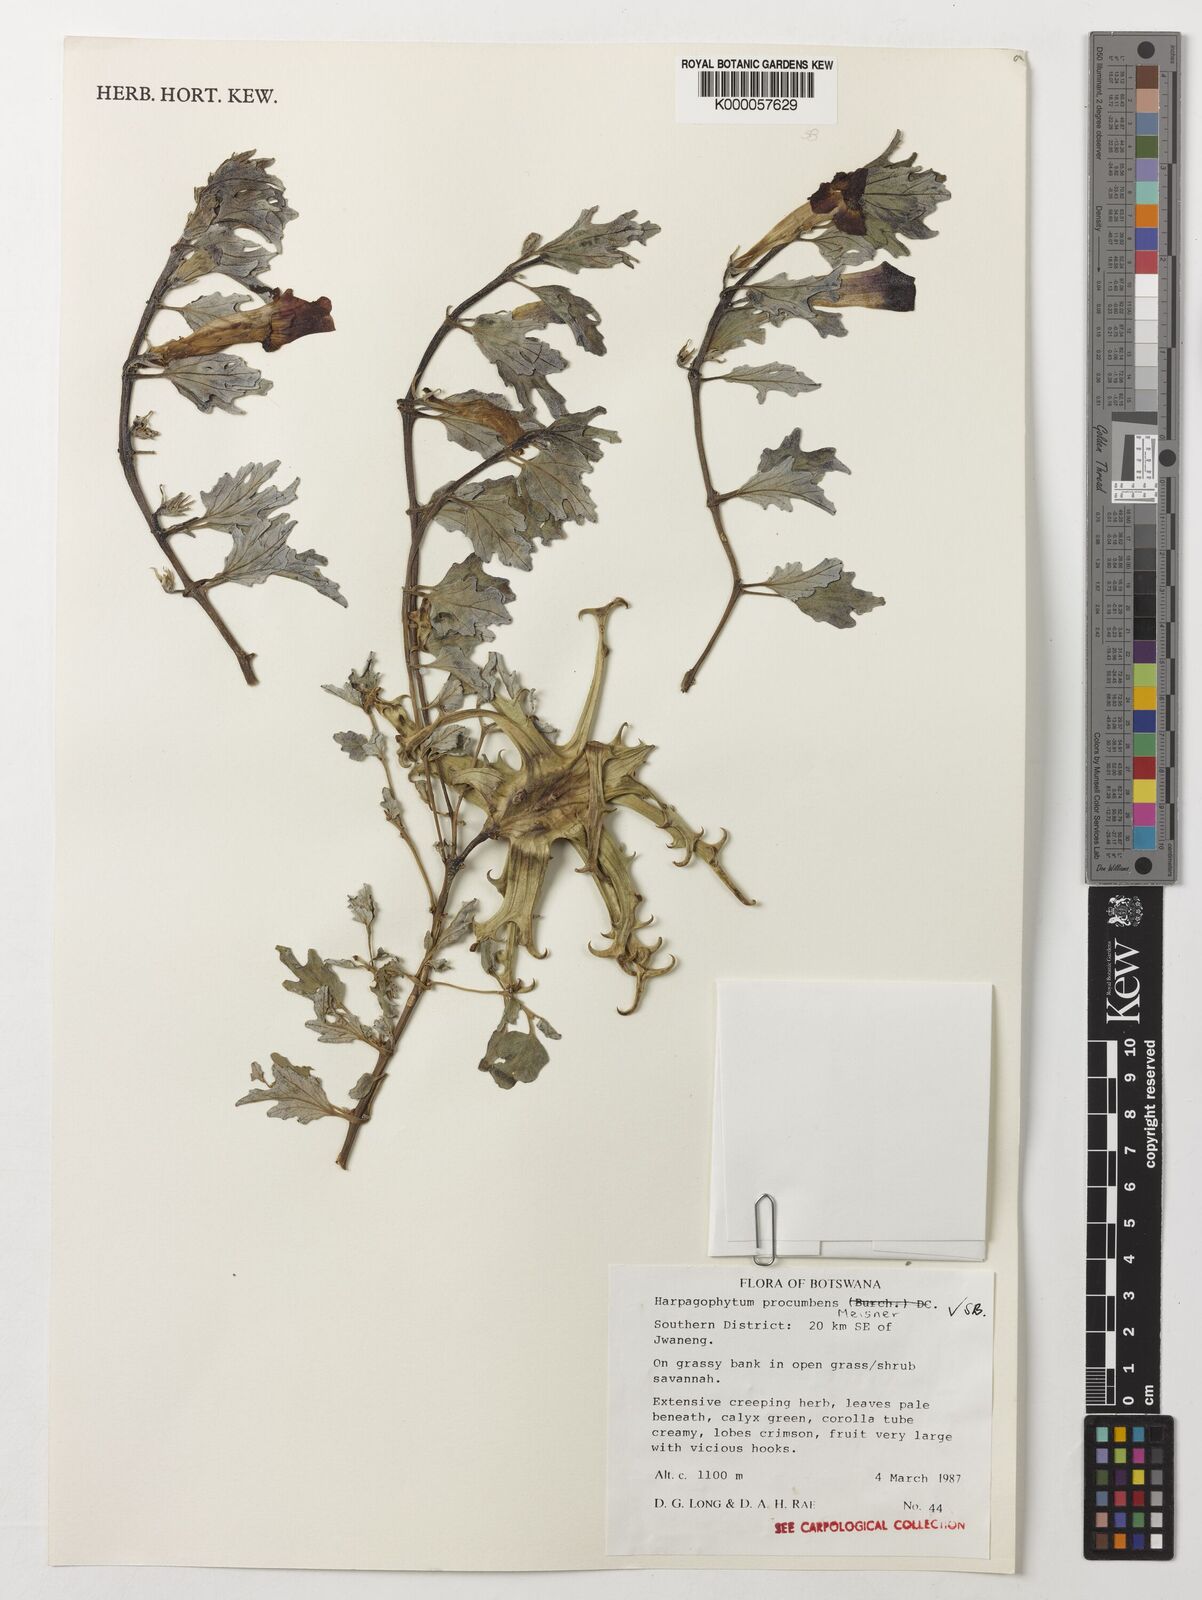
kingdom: Plantae
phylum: Tracheophyta
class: Magnoliopsida
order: Lamiales
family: Pedaliaceae
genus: Harpagophytum
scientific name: Harpagophytum procumbens
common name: Grappleplant
